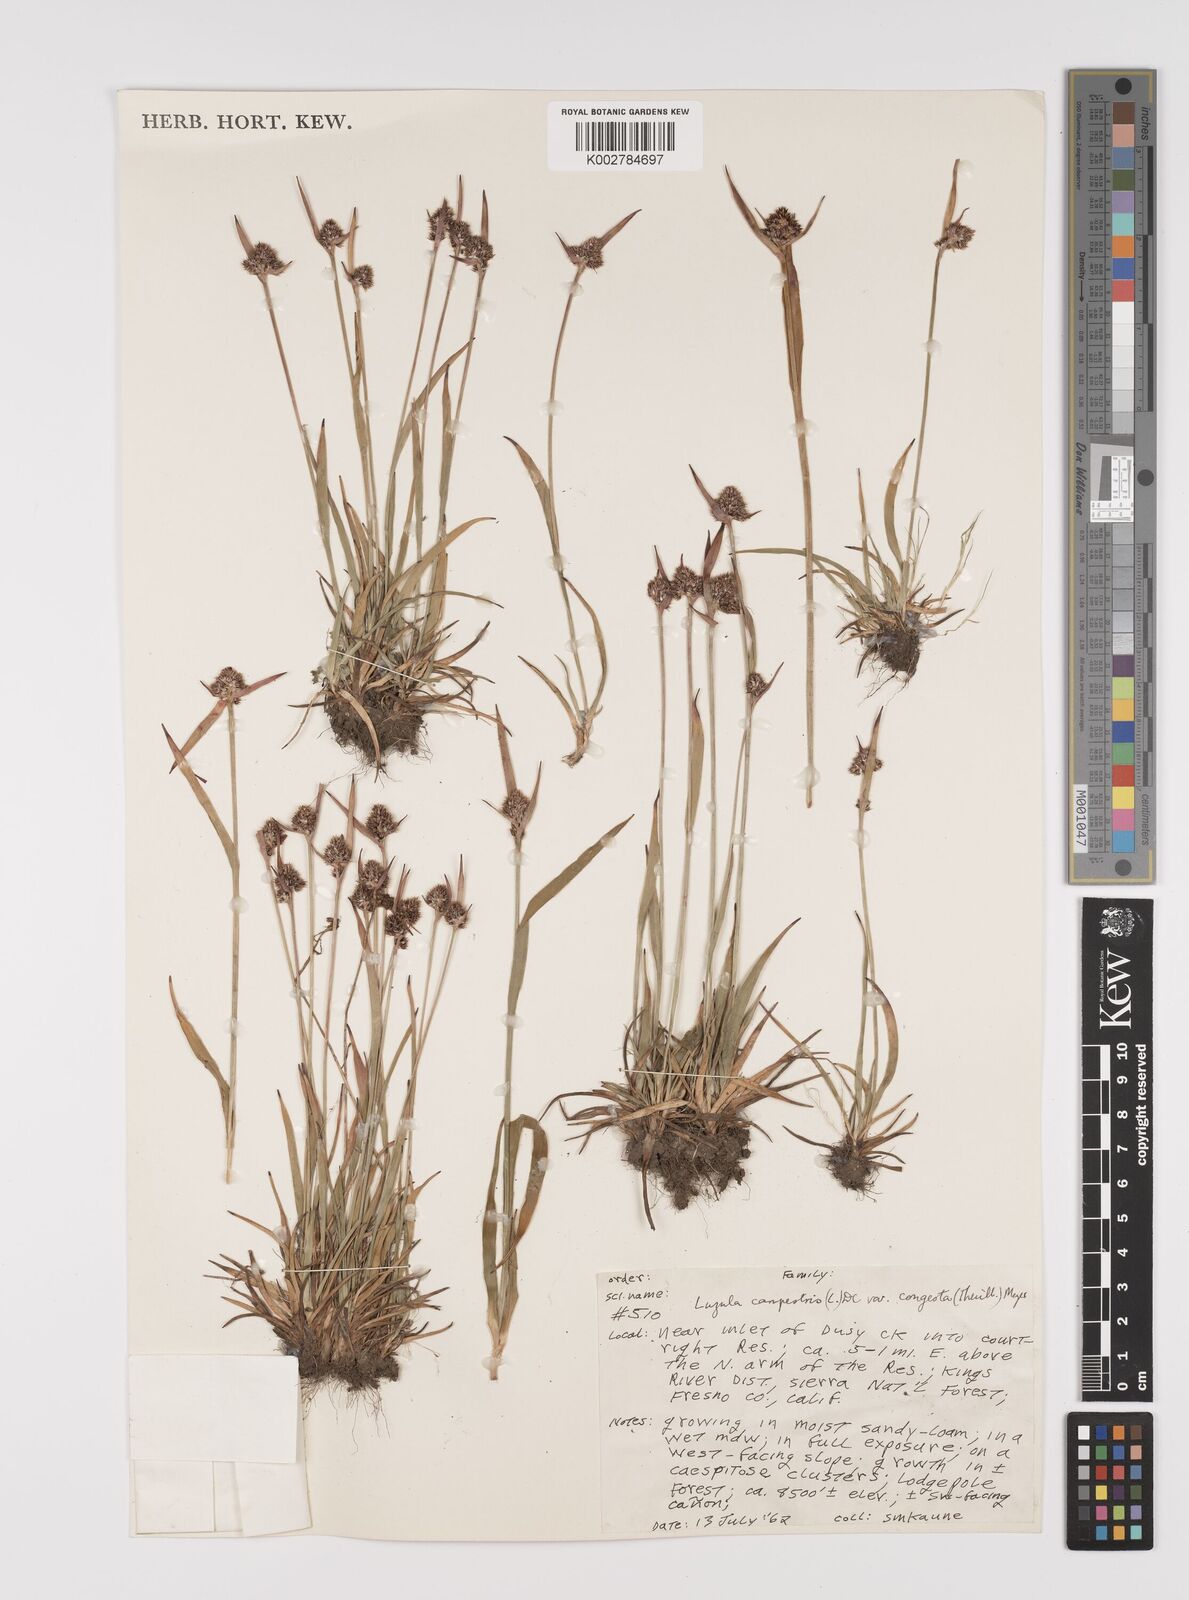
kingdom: Plantae
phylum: Tracheophyta
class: Liliopsida
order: Poales
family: Juncaceae
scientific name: Juncaceae
